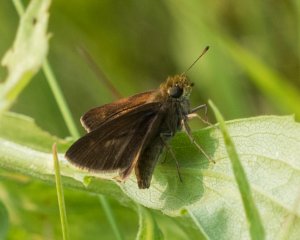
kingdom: Animalia
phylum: Arthropoda
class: Insecta
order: Lepidoptera
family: Hesperiidae
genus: Euphyes
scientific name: Euphyes vestris
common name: Dun Skipper
